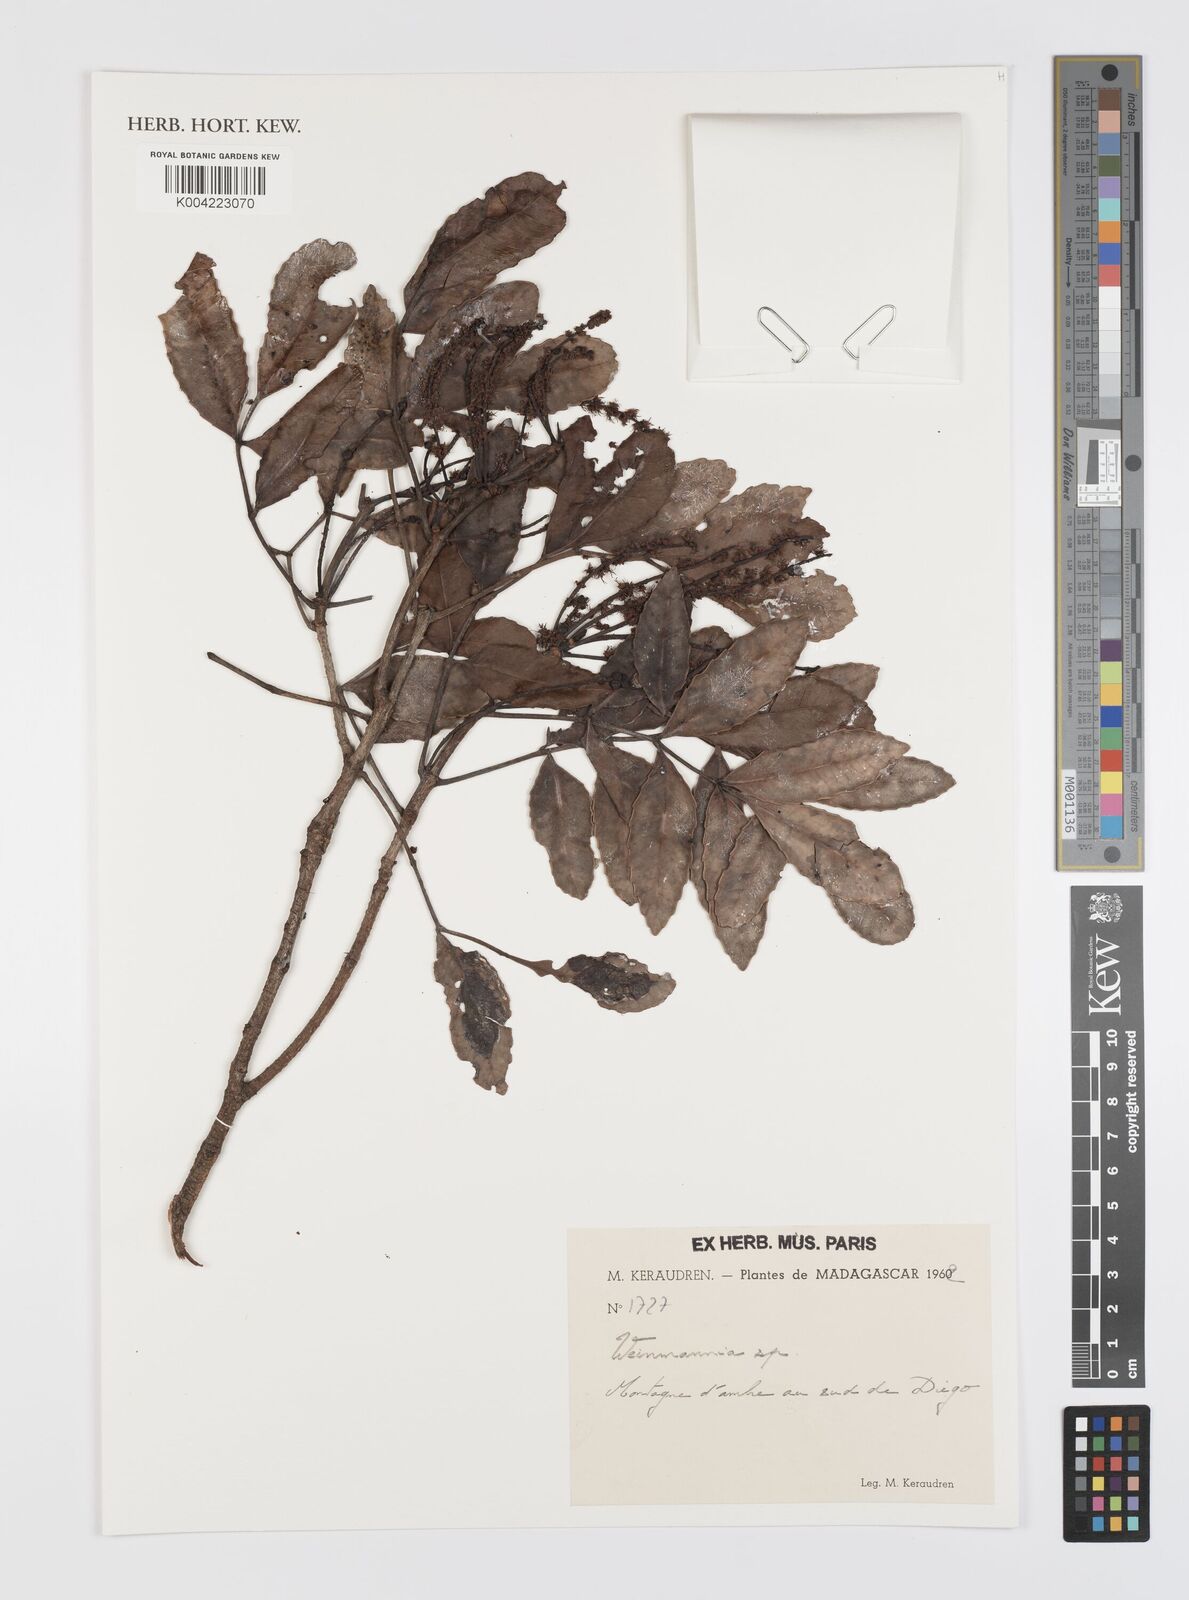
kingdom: Plantae
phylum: Tracheophyta
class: Magnoliopsida
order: Oxalidales
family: Cunoniaceae
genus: Weinmannia
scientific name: Weinmannia
